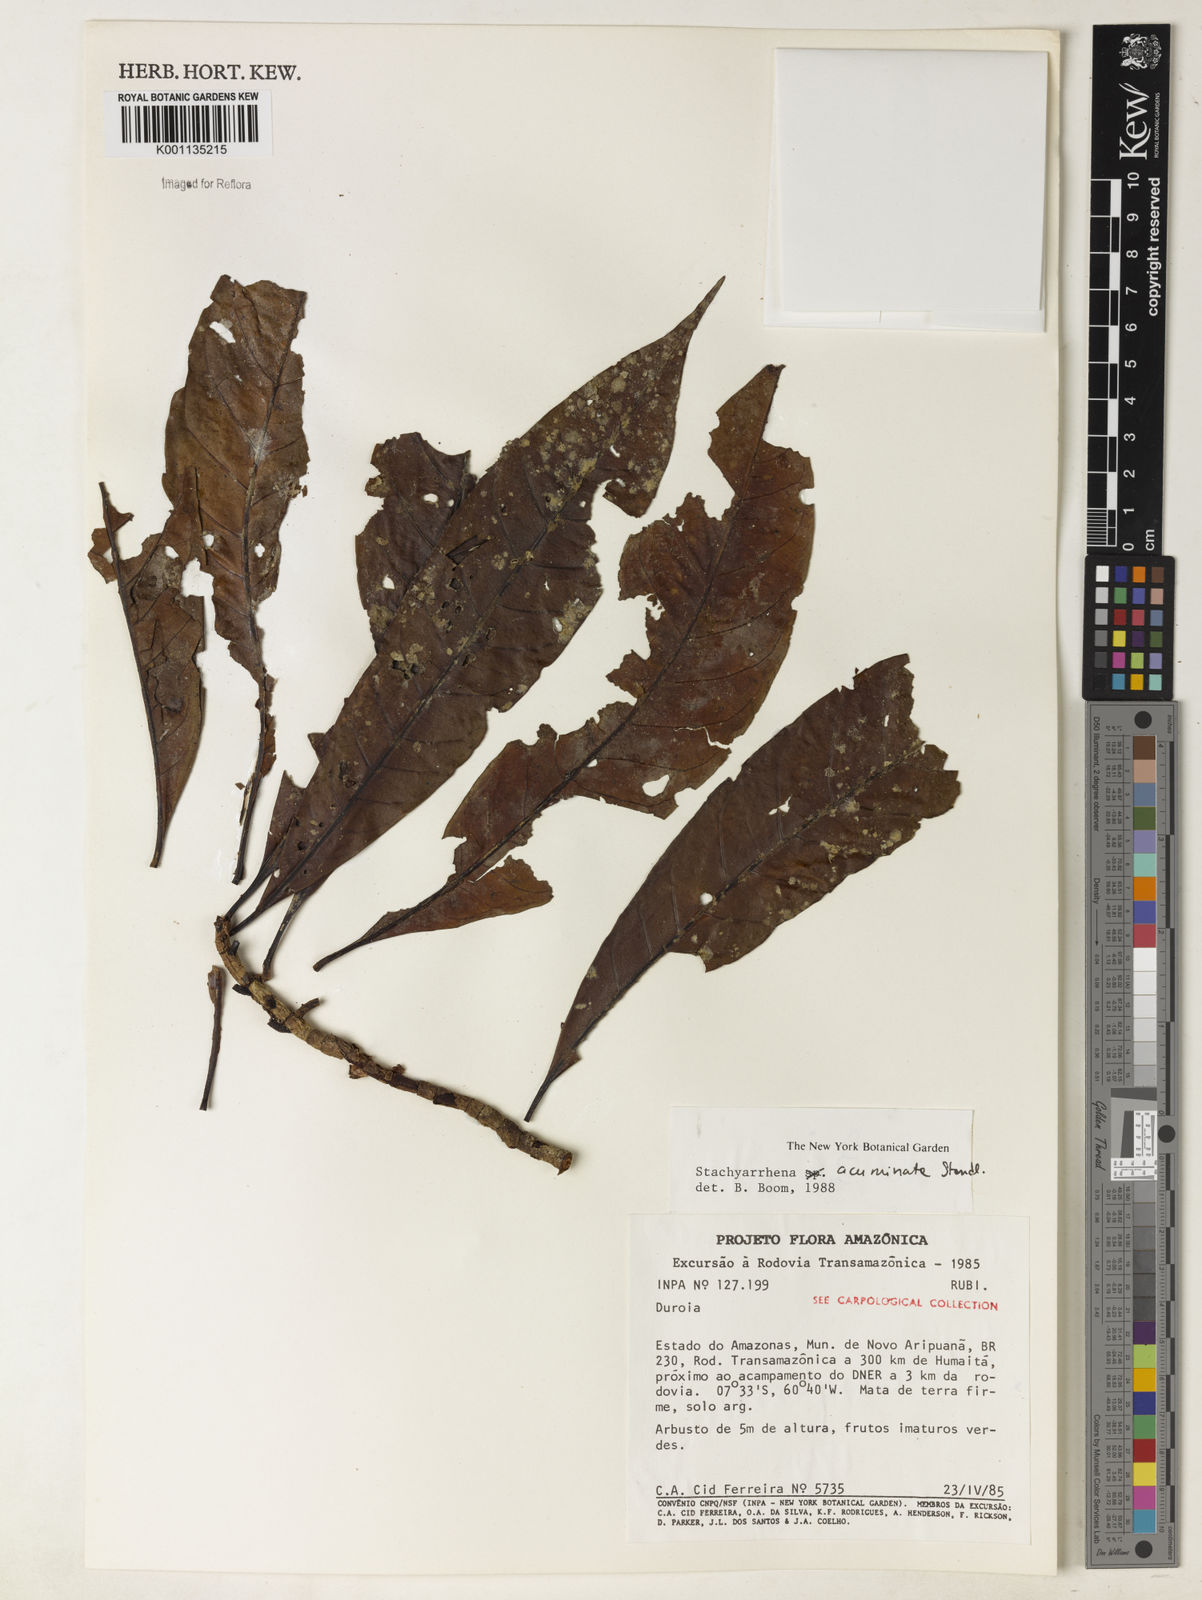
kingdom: Plantae
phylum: Tracheophyta
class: Magnoliopsida
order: Gentianales
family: Rubiaceae
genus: Stachyarrhena
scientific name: Stachyarrhena acuminata
